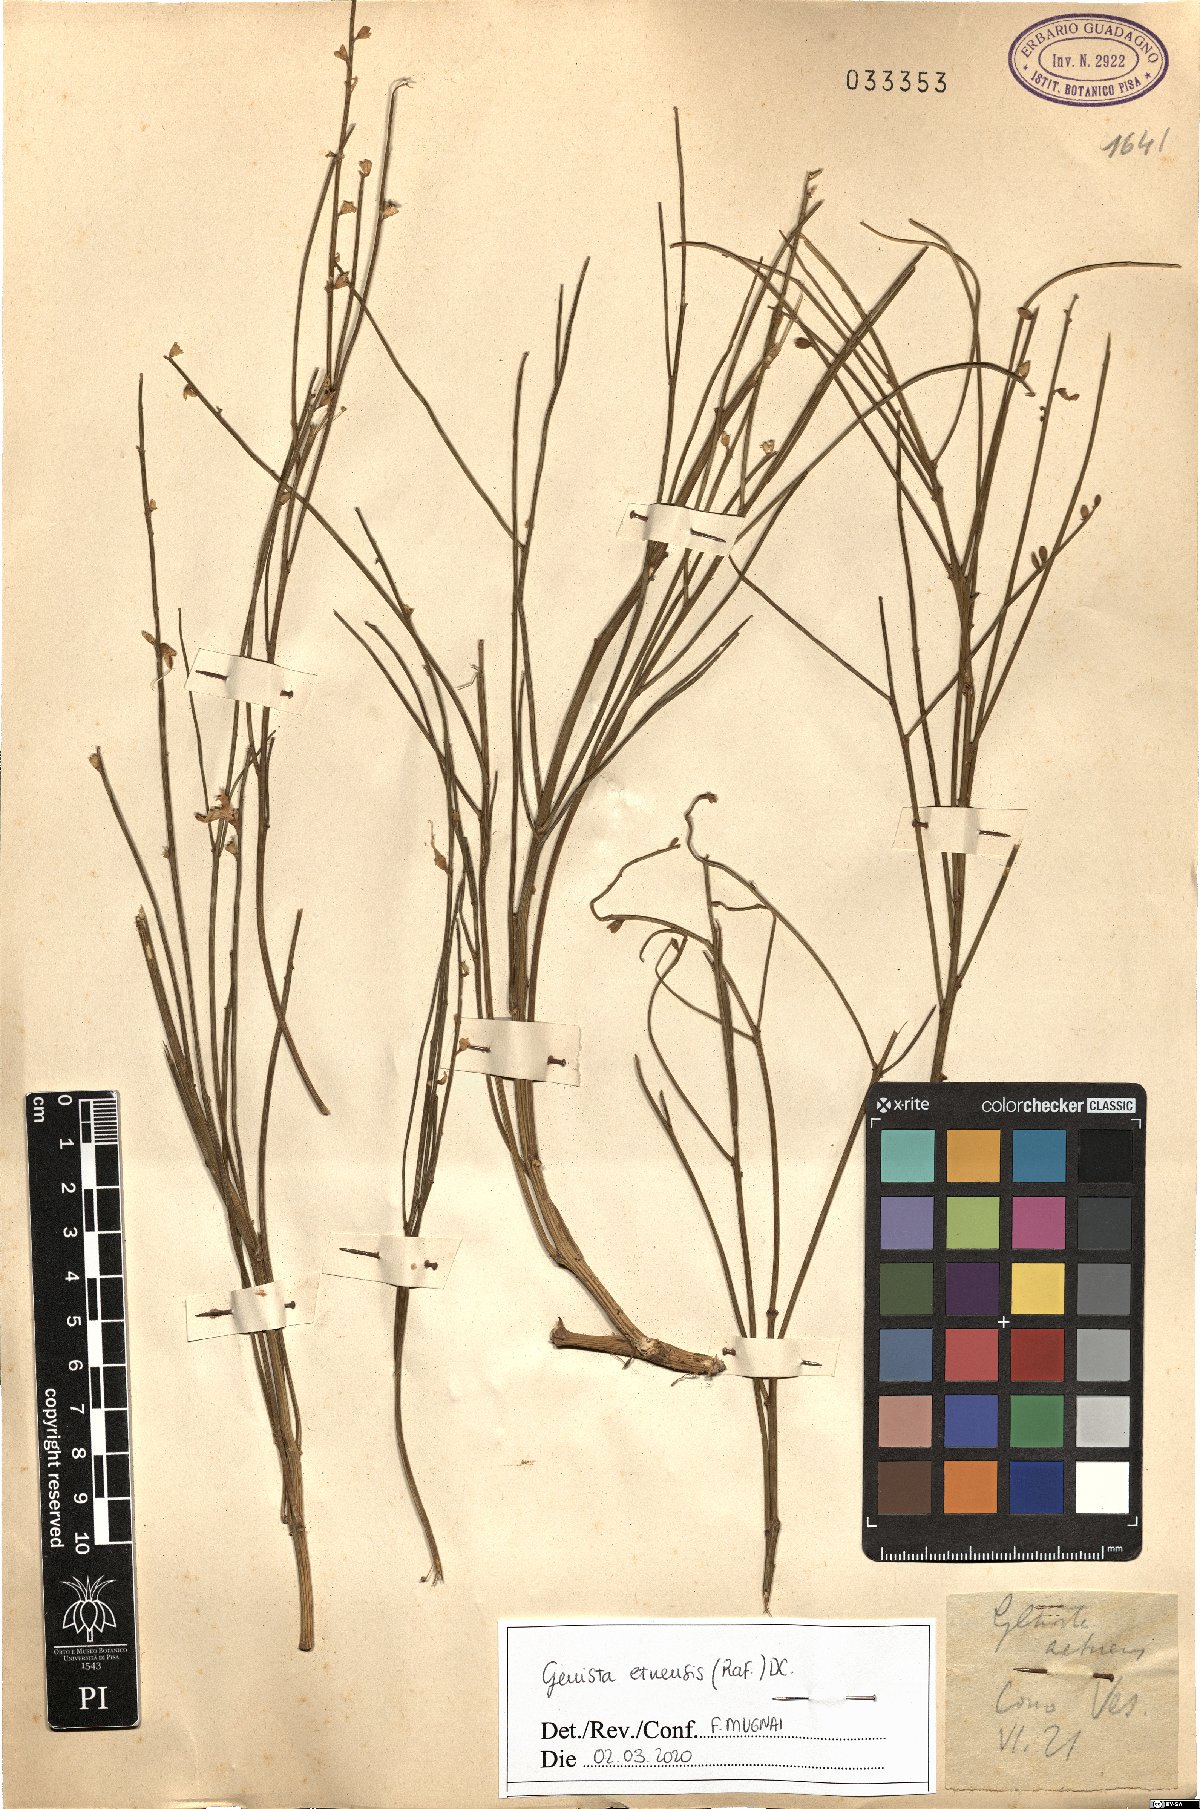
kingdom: Plantae
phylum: Tracheophyta
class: Magnoliopsida
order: Fabales
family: Fabaceae
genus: Genista
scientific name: Genista aetnensis
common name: Mount etna broom
